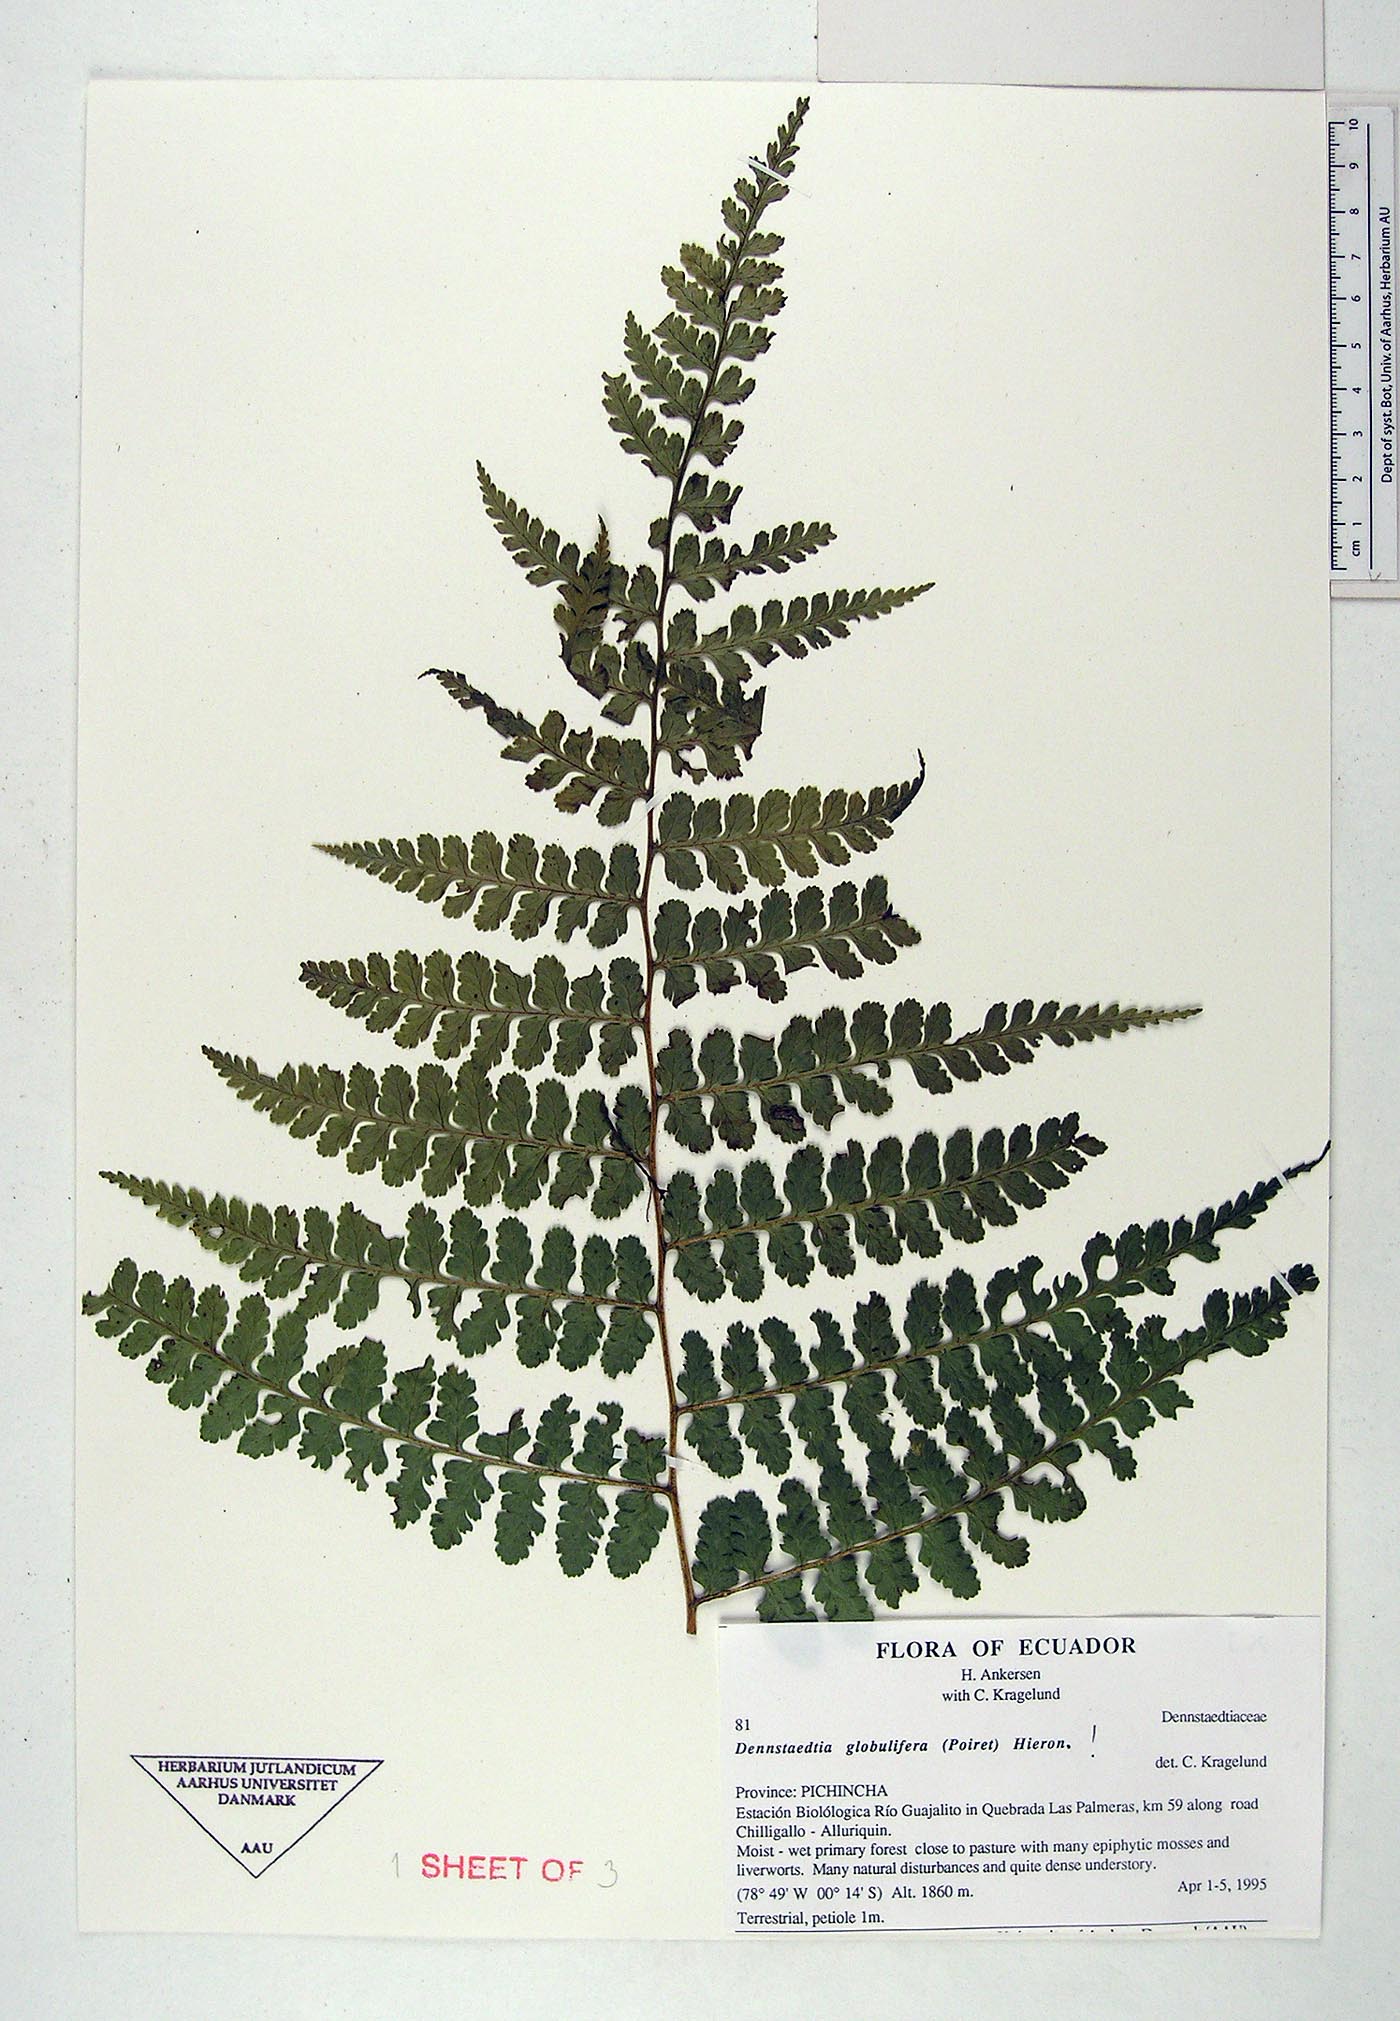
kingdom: Plantae
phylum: Tracheophyta
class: Polypodiopsida
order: Polypodiales
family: Dennstaedtiaceae
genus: Mucura
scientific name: Mucura globulifera
